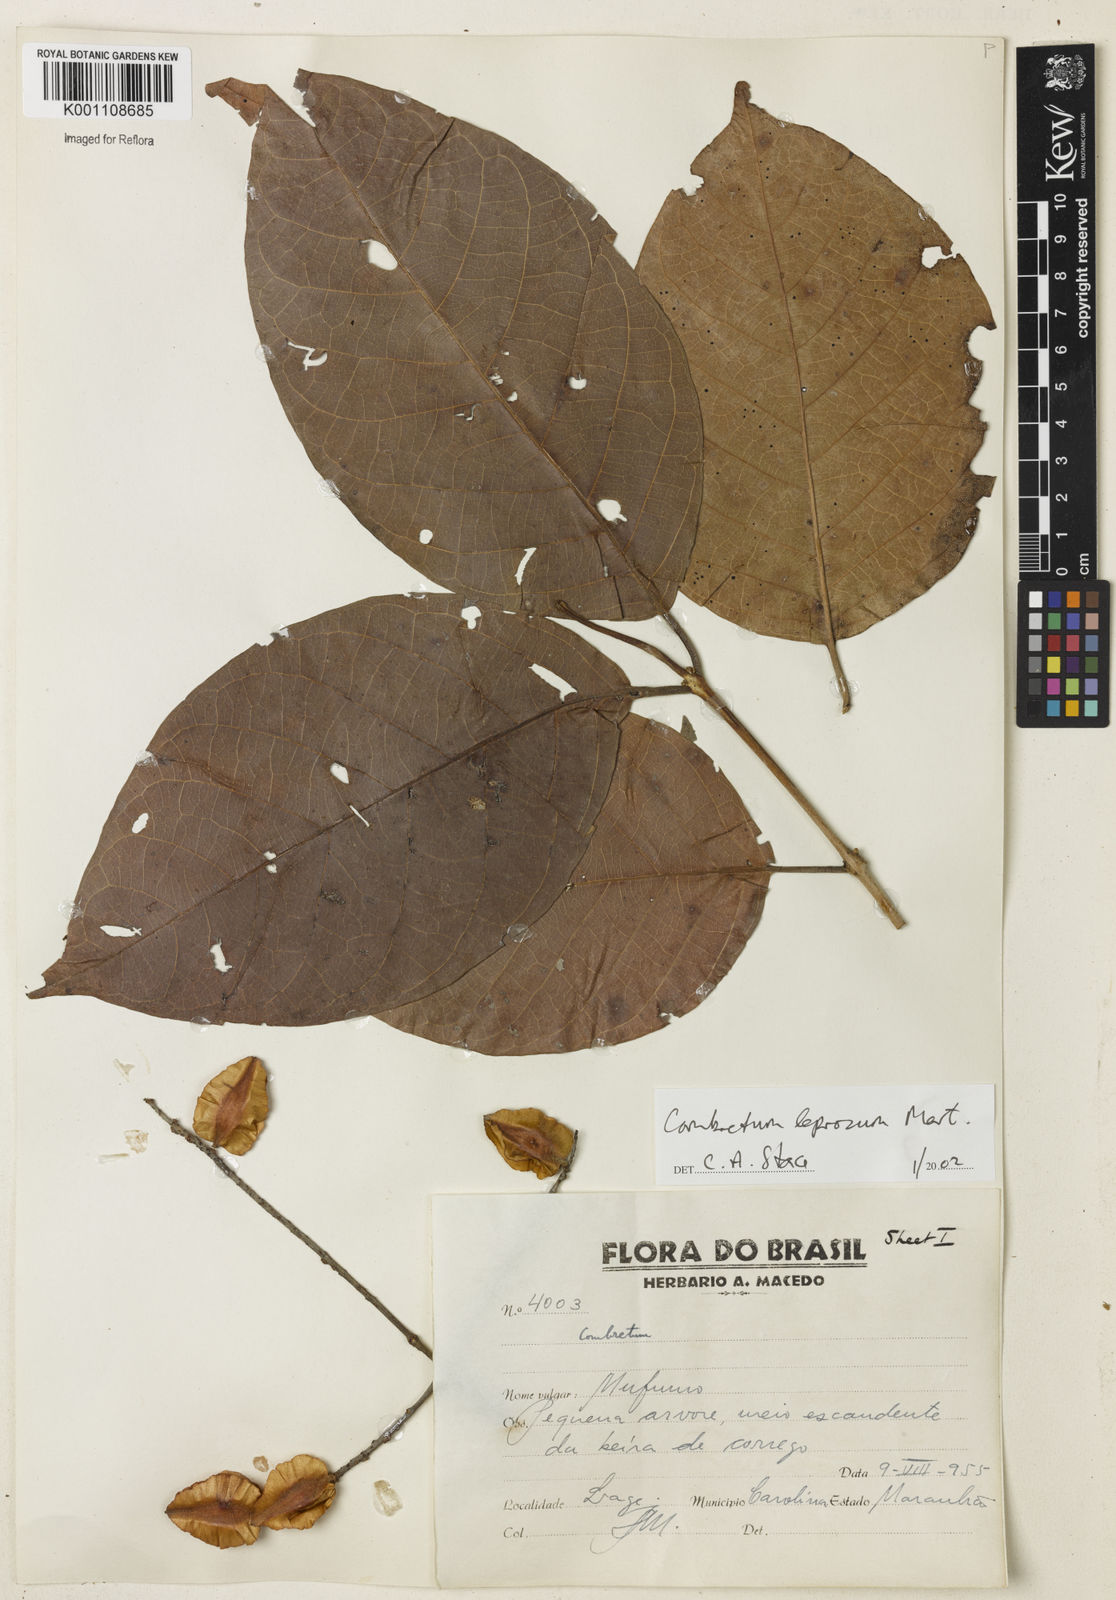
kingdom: Plantae
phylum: Tracheophyta
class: Magnoliopsida
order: Myrtales
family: Combretaceae
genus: Combretum
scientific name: Combretum leprosum
